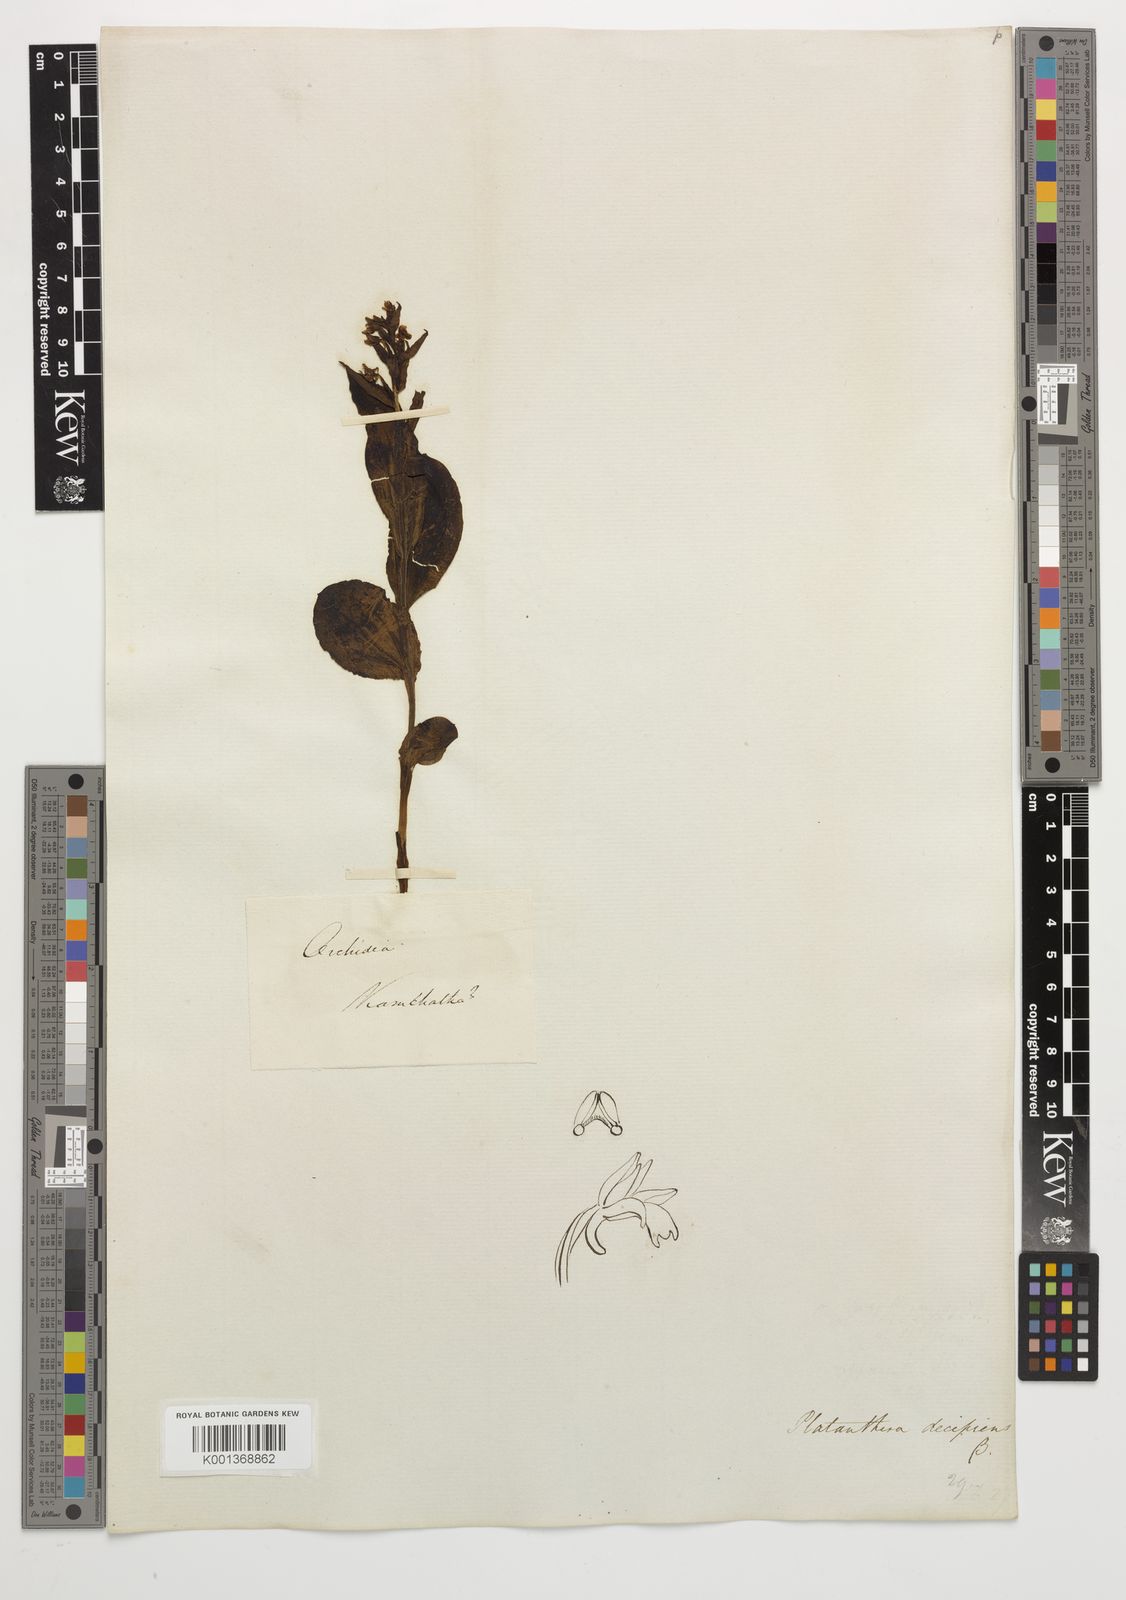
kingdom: Plantae
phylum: Tracheophyta
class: Liliopsida
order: Asparagales
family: Orchidaceae
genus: Galearis
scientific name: Galearis camtschatica
